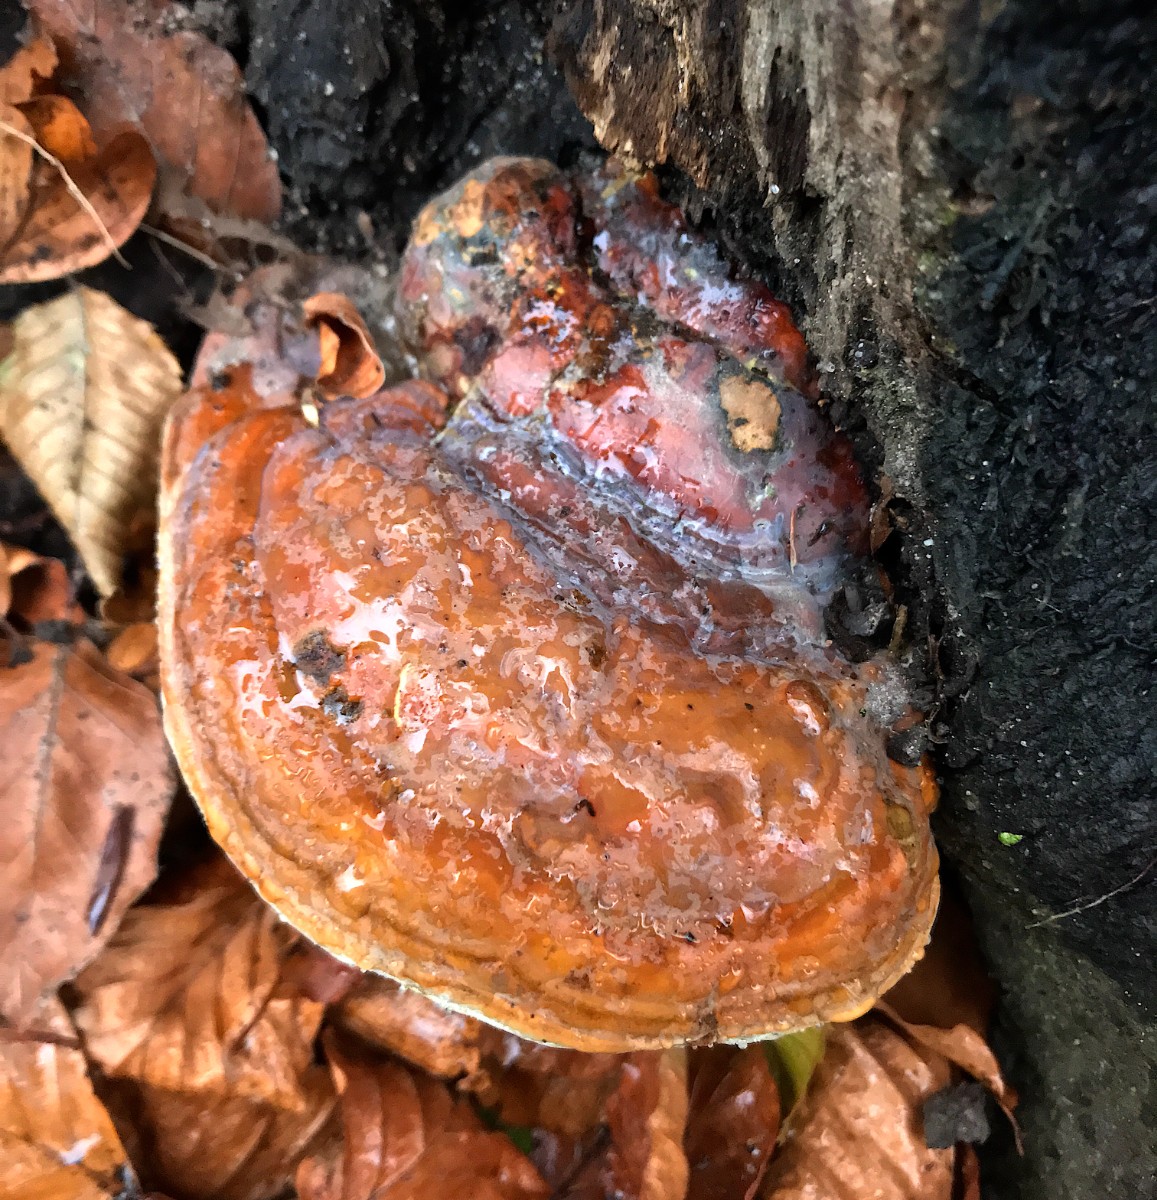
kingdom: Fungi
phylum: Basidiomycota
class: Agaricomycetes
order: Polyporales
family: Fomitopsidaceae
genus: Fomitopsis
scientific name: Fomitopsis pinicola
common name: randbæltet hovporesvamp
